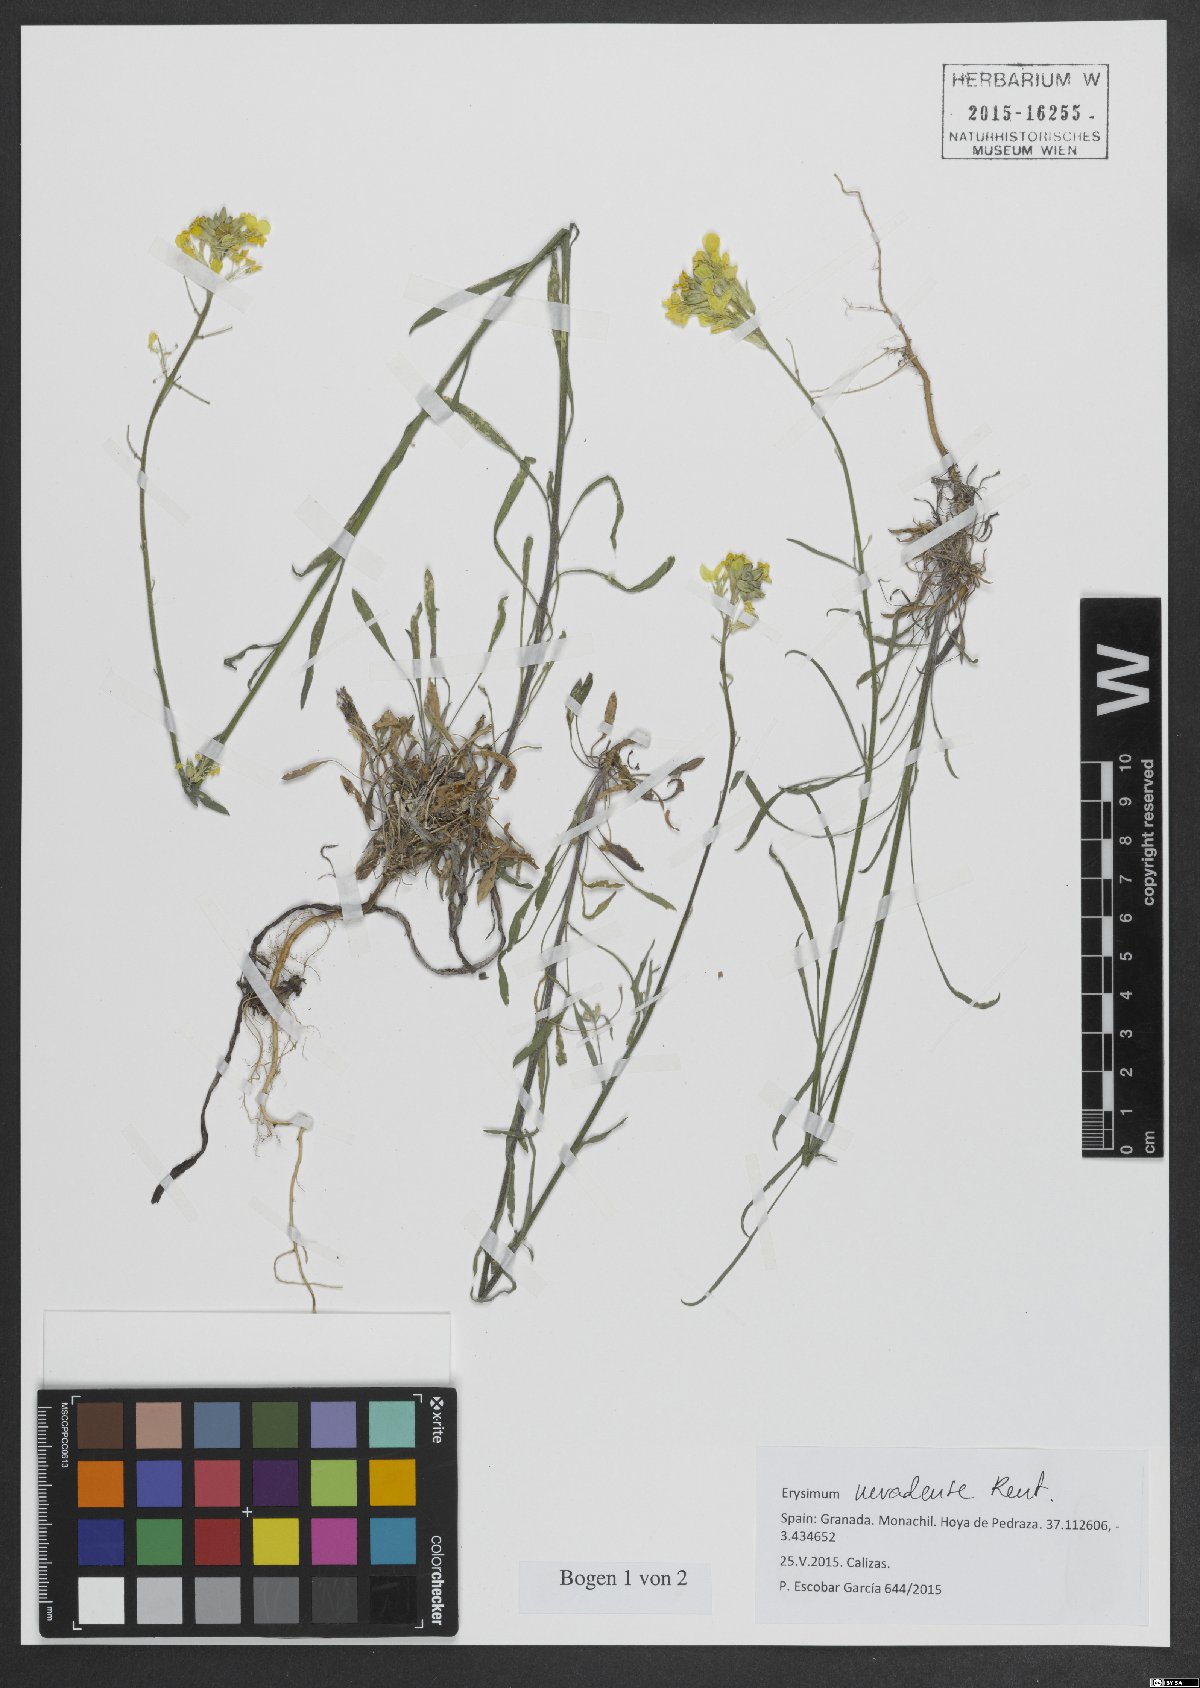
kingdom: Plantae
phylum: Tracheophyta
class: Magnoliopsida
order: Brassicales
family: Brassicaceae
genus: Erysimum
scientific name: Erysimum nevadense
